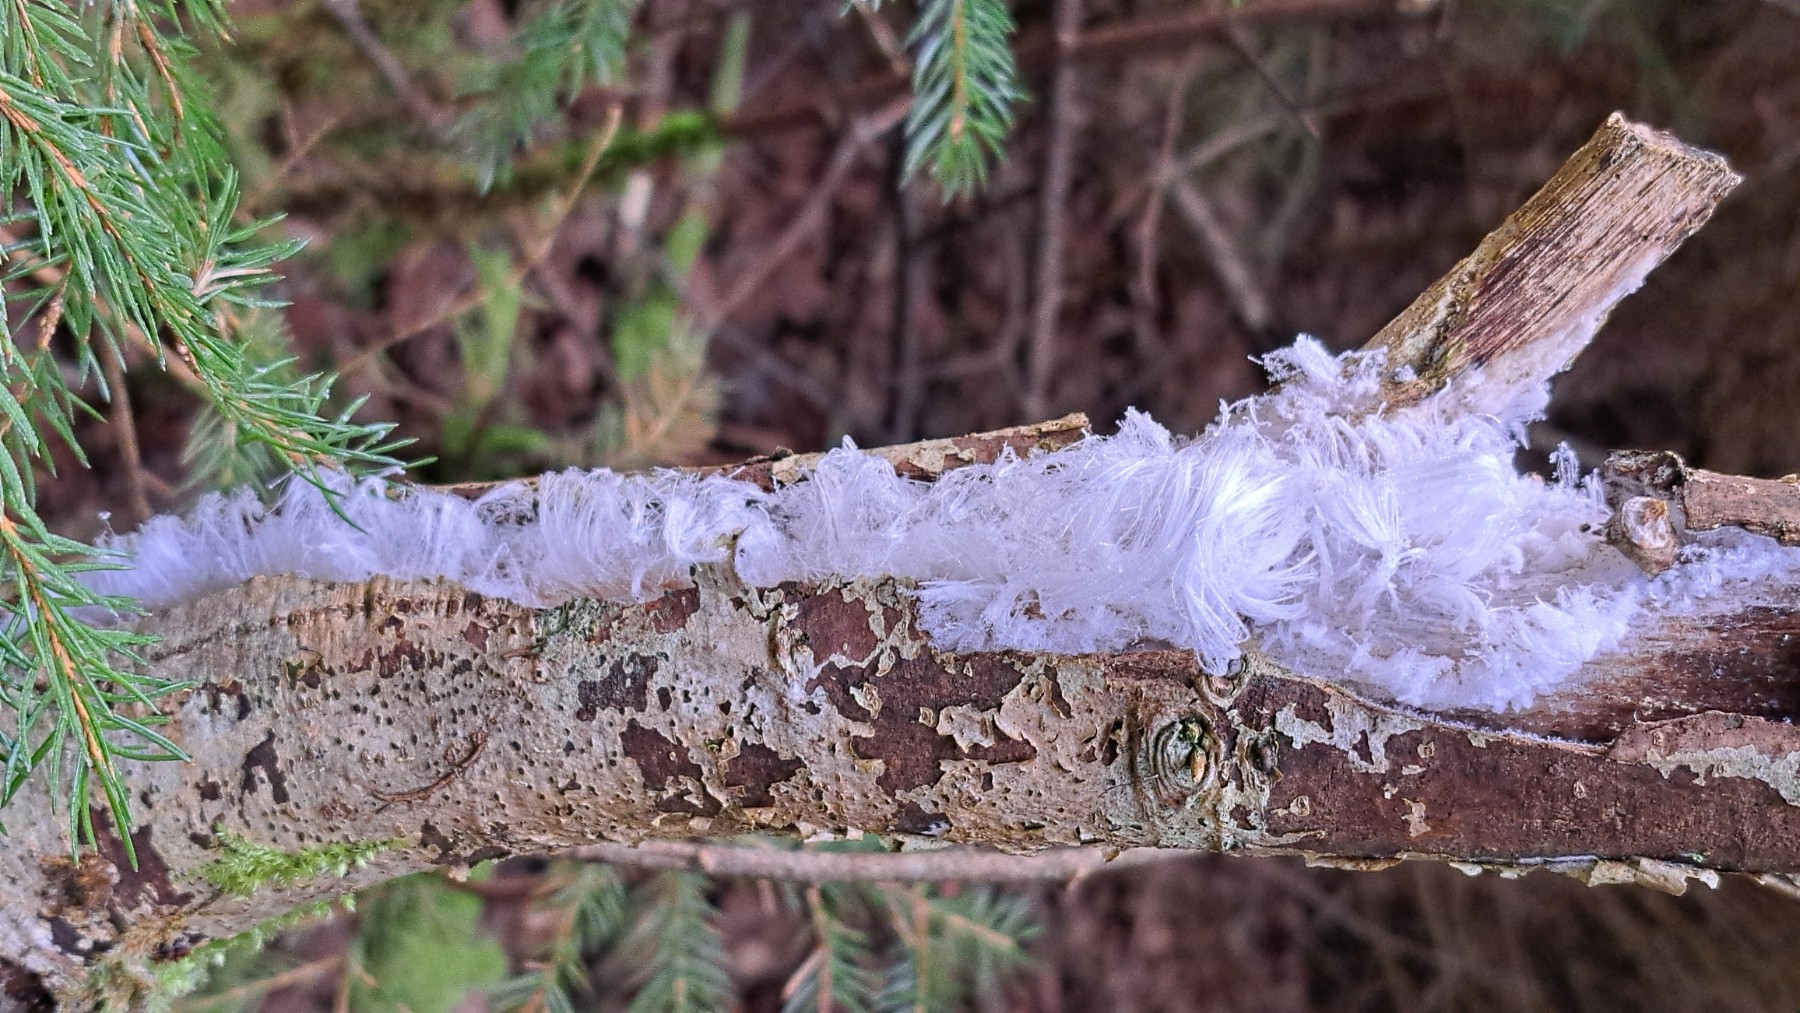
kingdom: Fungi
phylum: Basidiomycota
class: Tremellomycetes
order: Tremellales
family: Exidiaceae
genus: Exidiopsis
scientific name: Exidiopsis effusa
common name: smuk bævrehinde
